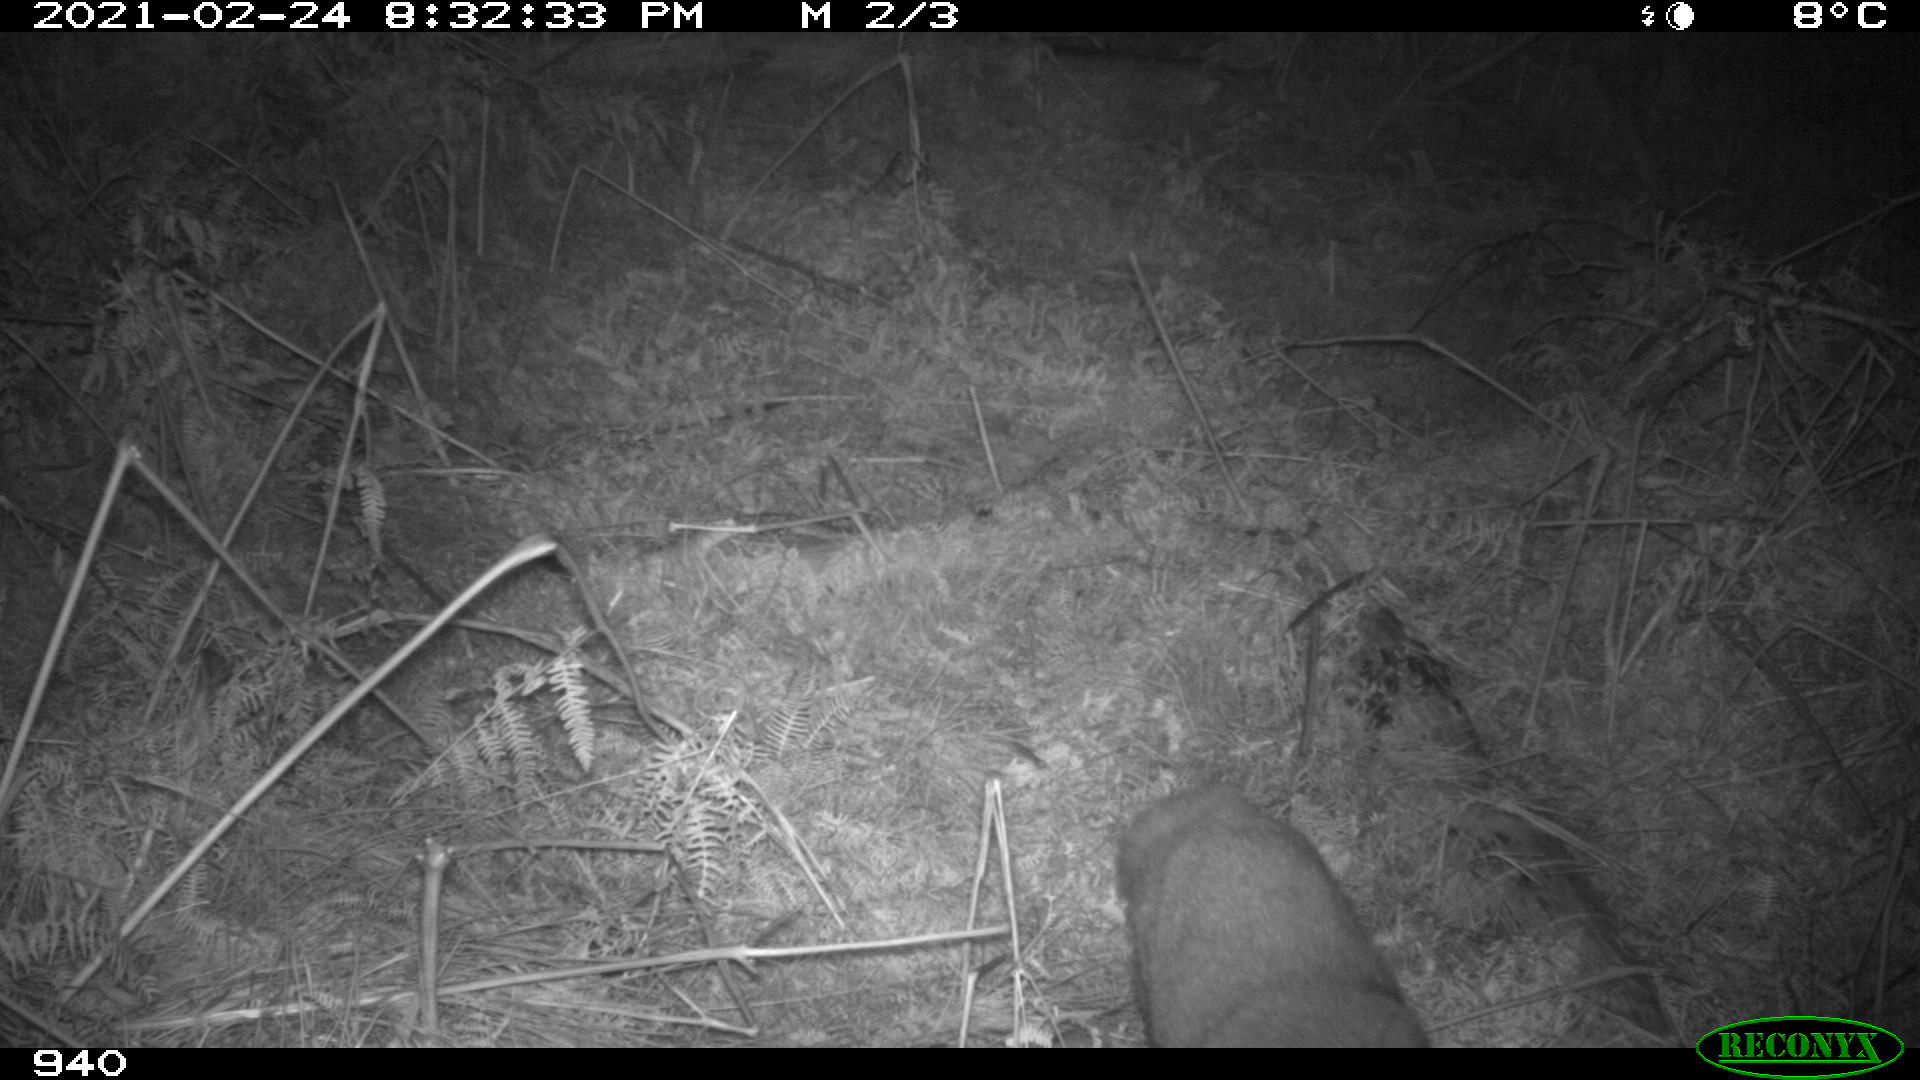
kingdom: Animalia
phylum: Chordata
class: Mammalia
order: Carnivora
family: Canidae
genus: Vulpes
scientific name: Vulpes vulpes
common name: Red fox
